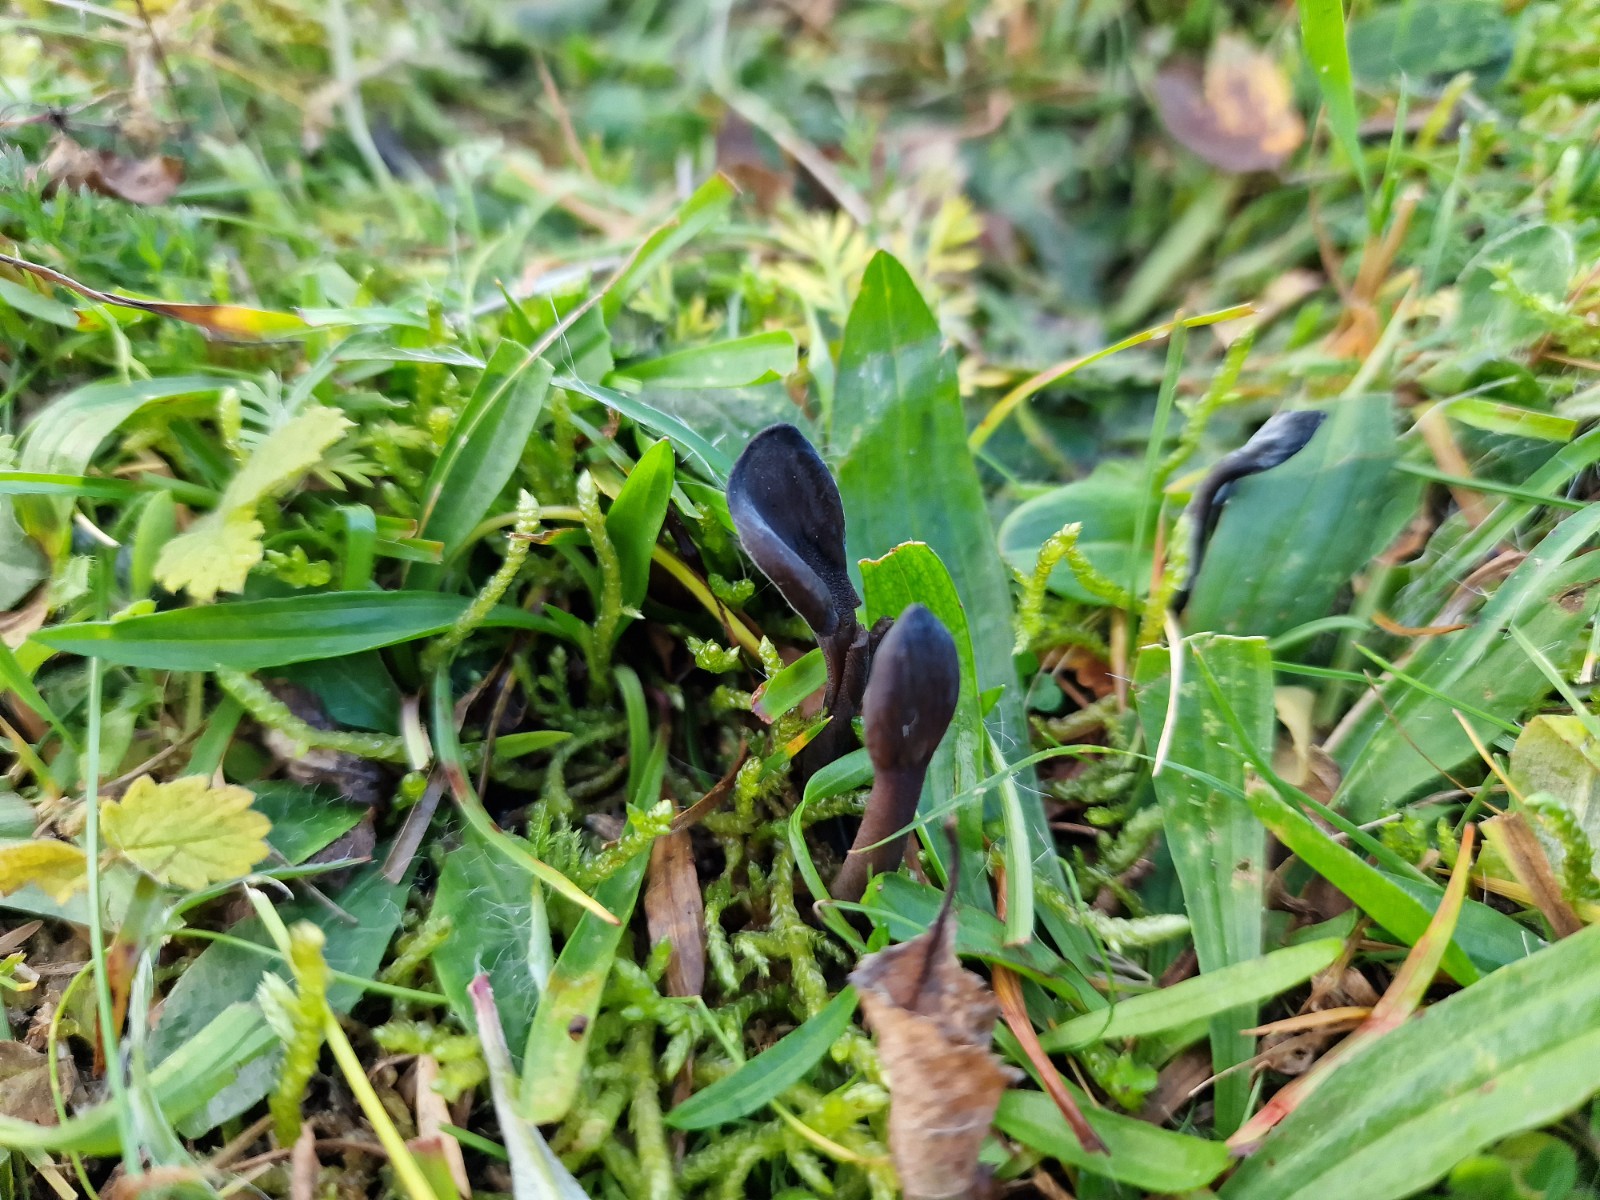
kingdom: Fungi
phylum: Ascomycota
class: Geoglossomycetes
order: Geoglossales
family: Geoglossaceae
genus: Geoglossum
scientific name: Geoglossum
